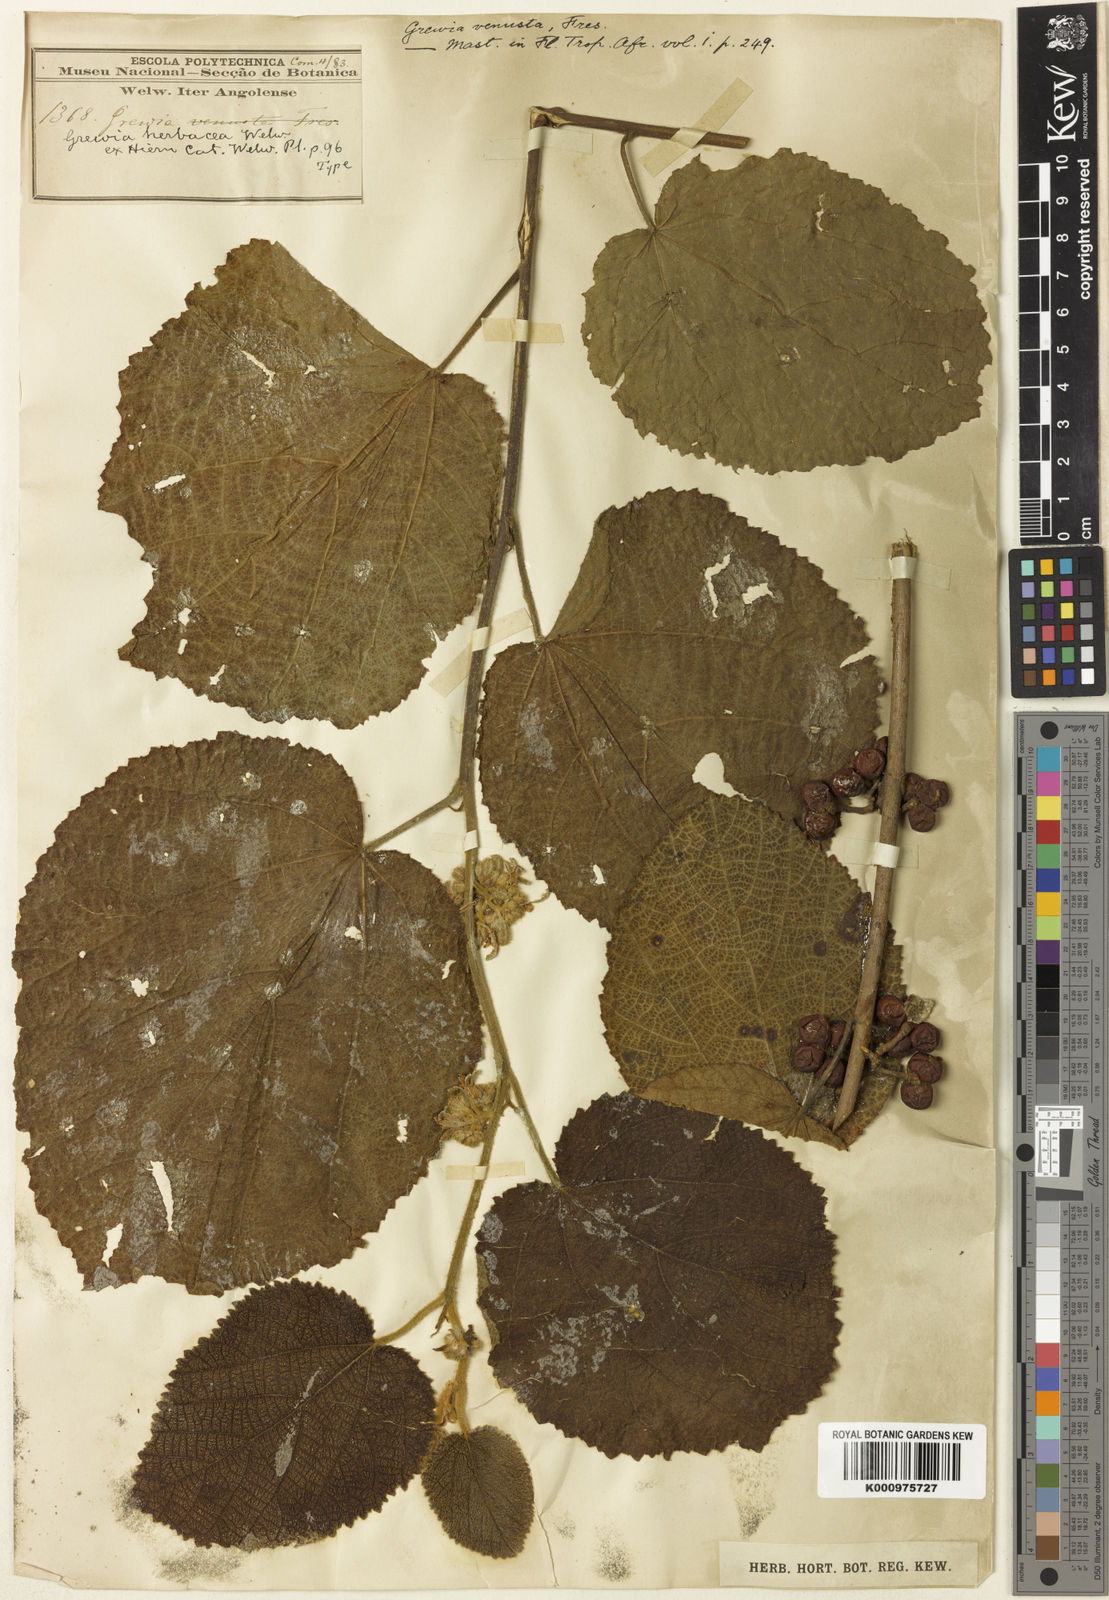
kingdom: Plantae
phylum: Tracheophyta
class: Magnoliopsida
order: Malvales
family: Malvaceae
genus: Grewia
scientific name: Grewia herbacea
